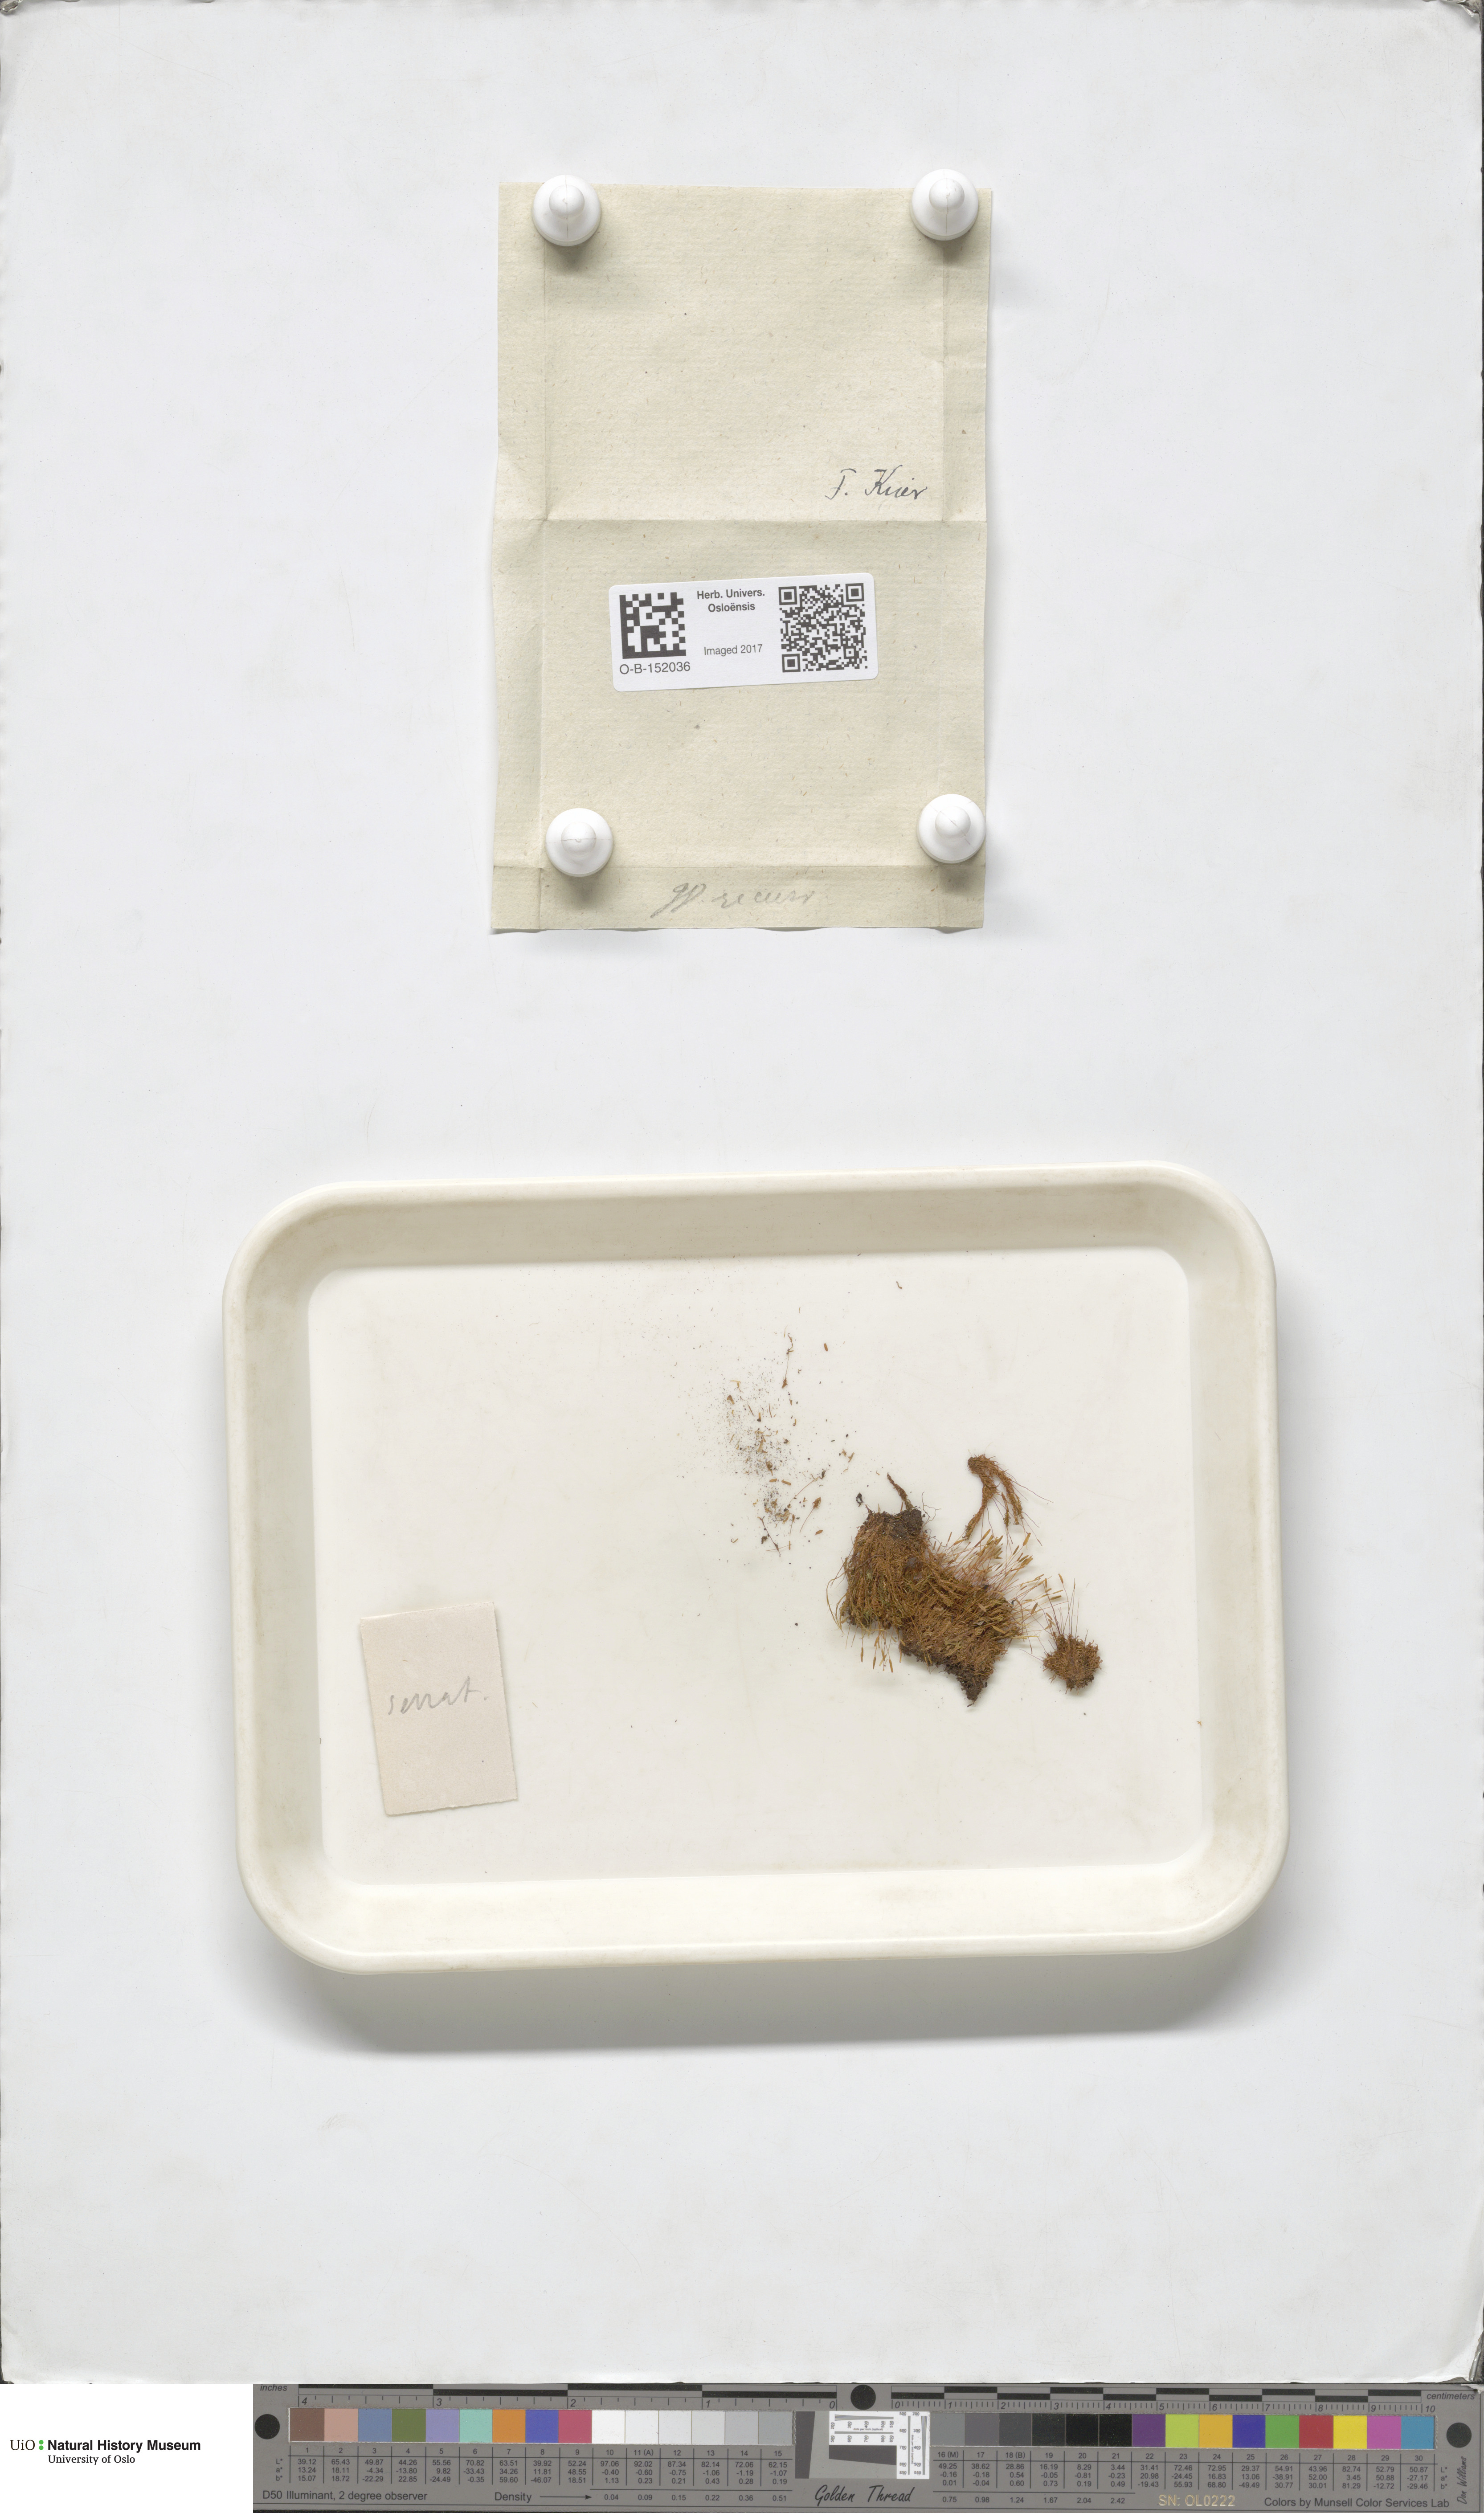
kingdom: Plantae
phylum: Bryophyta
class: Bryopsida
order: Pottiales
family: Pottiaceae
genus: Bryoerythrophyllum
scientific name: Bryoerythrophyllum recurvirostrum
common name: Red beard moss
